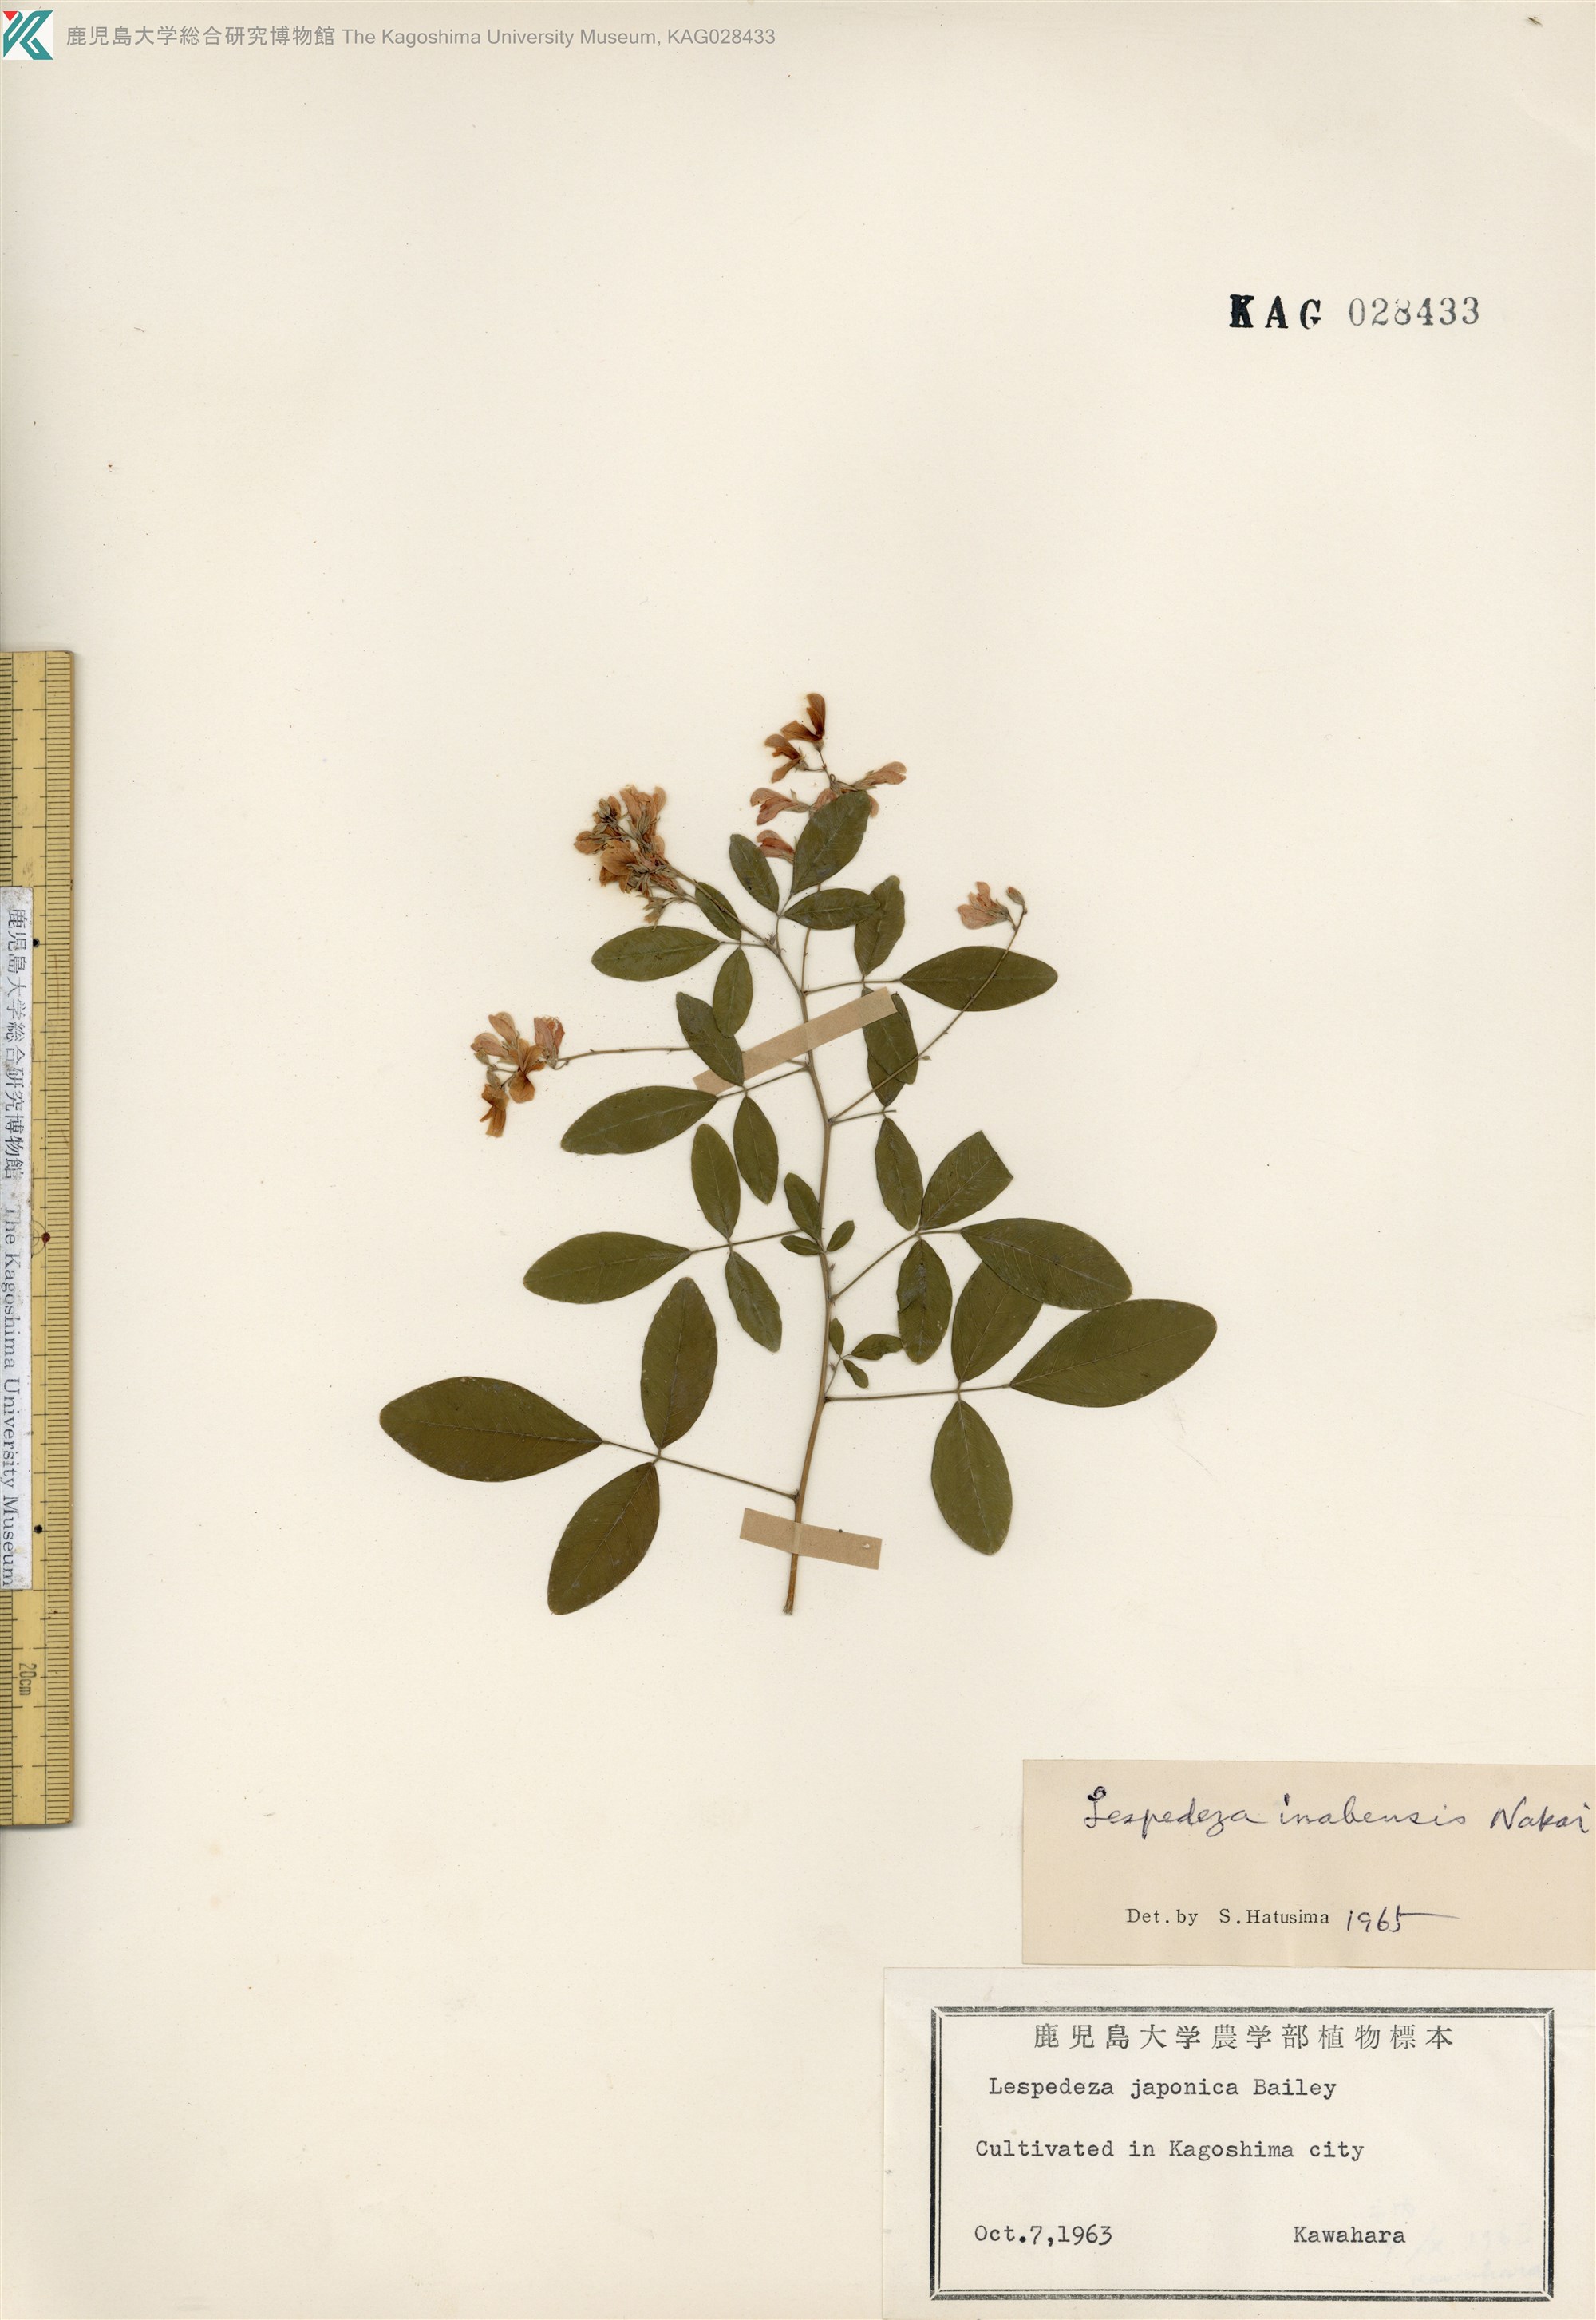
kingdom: Plantae
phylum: Tracheophyta
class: Magnoliopsida
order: Fabales
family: Fabaceae
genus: Lespedeza
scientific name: Lespedeza thunbergii
